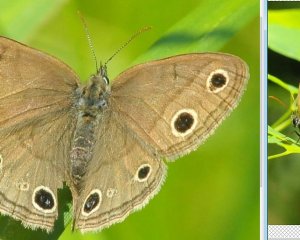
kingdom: Animalia
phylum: Arthropoda
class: Insecta
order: Lepidoptera
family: Nymphalidae
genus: Euptychia
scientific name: Euptychia cymela
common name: Little Wood Satyr
